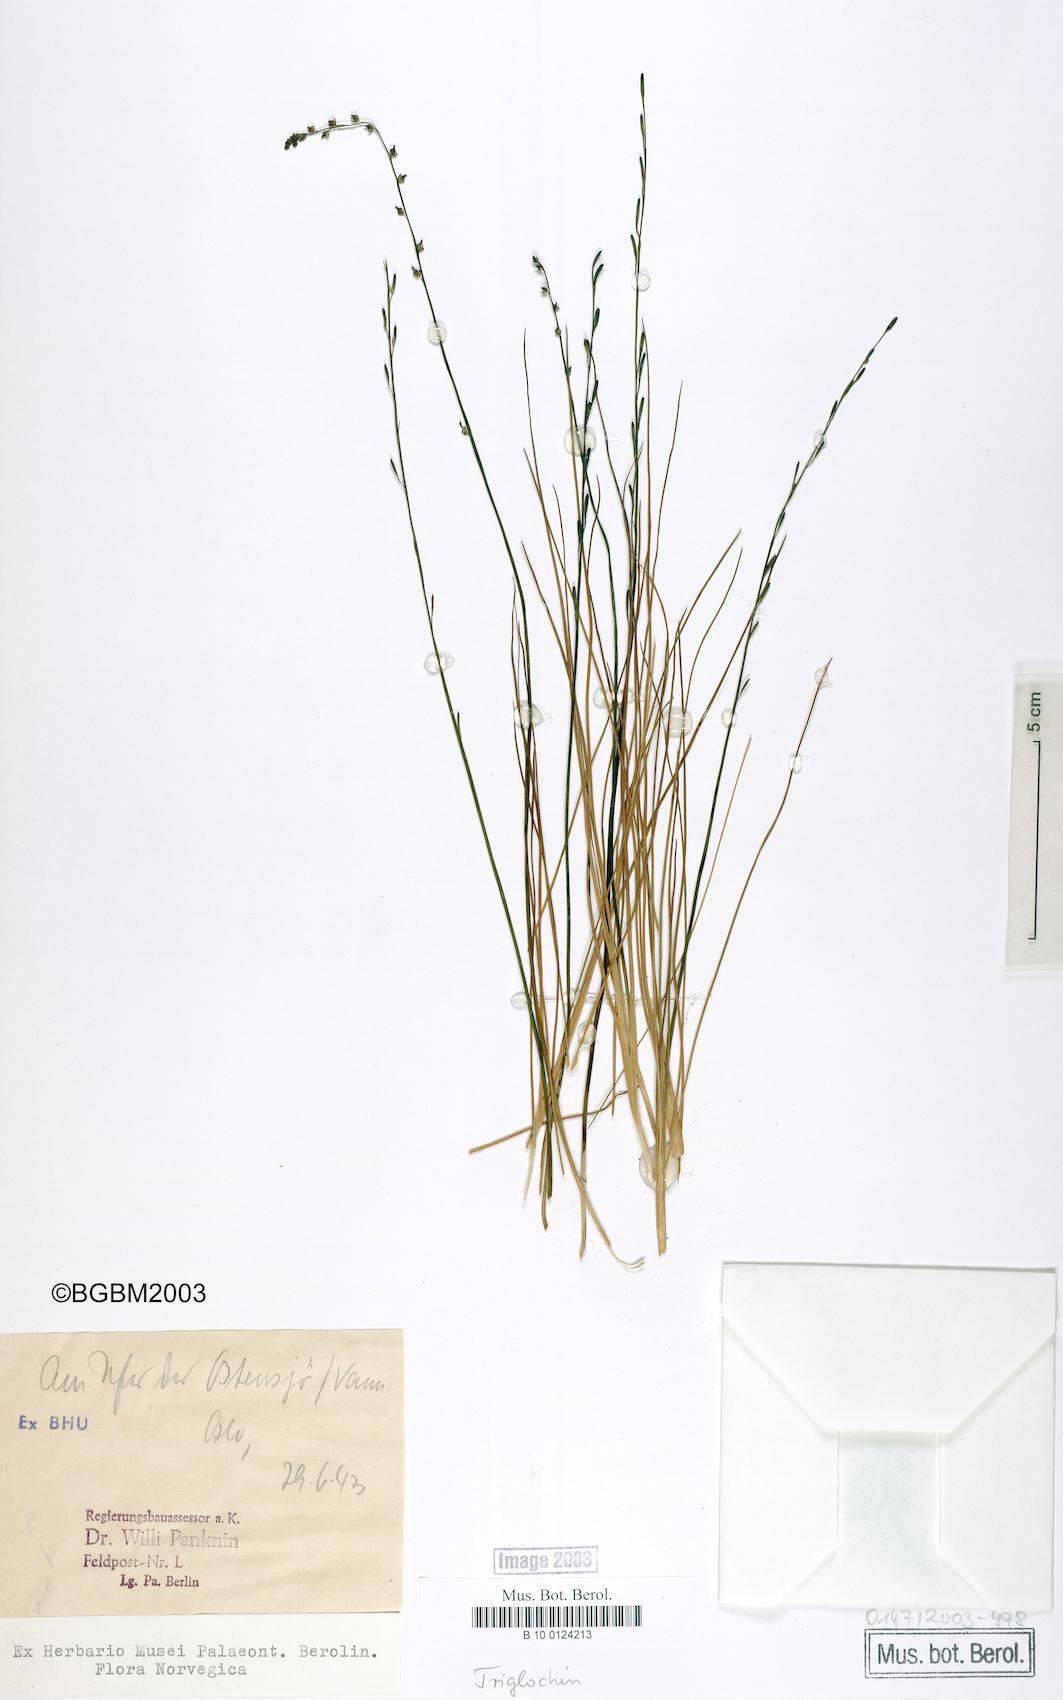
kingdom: Plantae
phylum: Tracheophyta
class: Liliopsida
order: Alismatales
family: Juncaginaceae
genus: Triglochin
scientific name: Triglochin palustris
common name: Marsh arrowgrass
